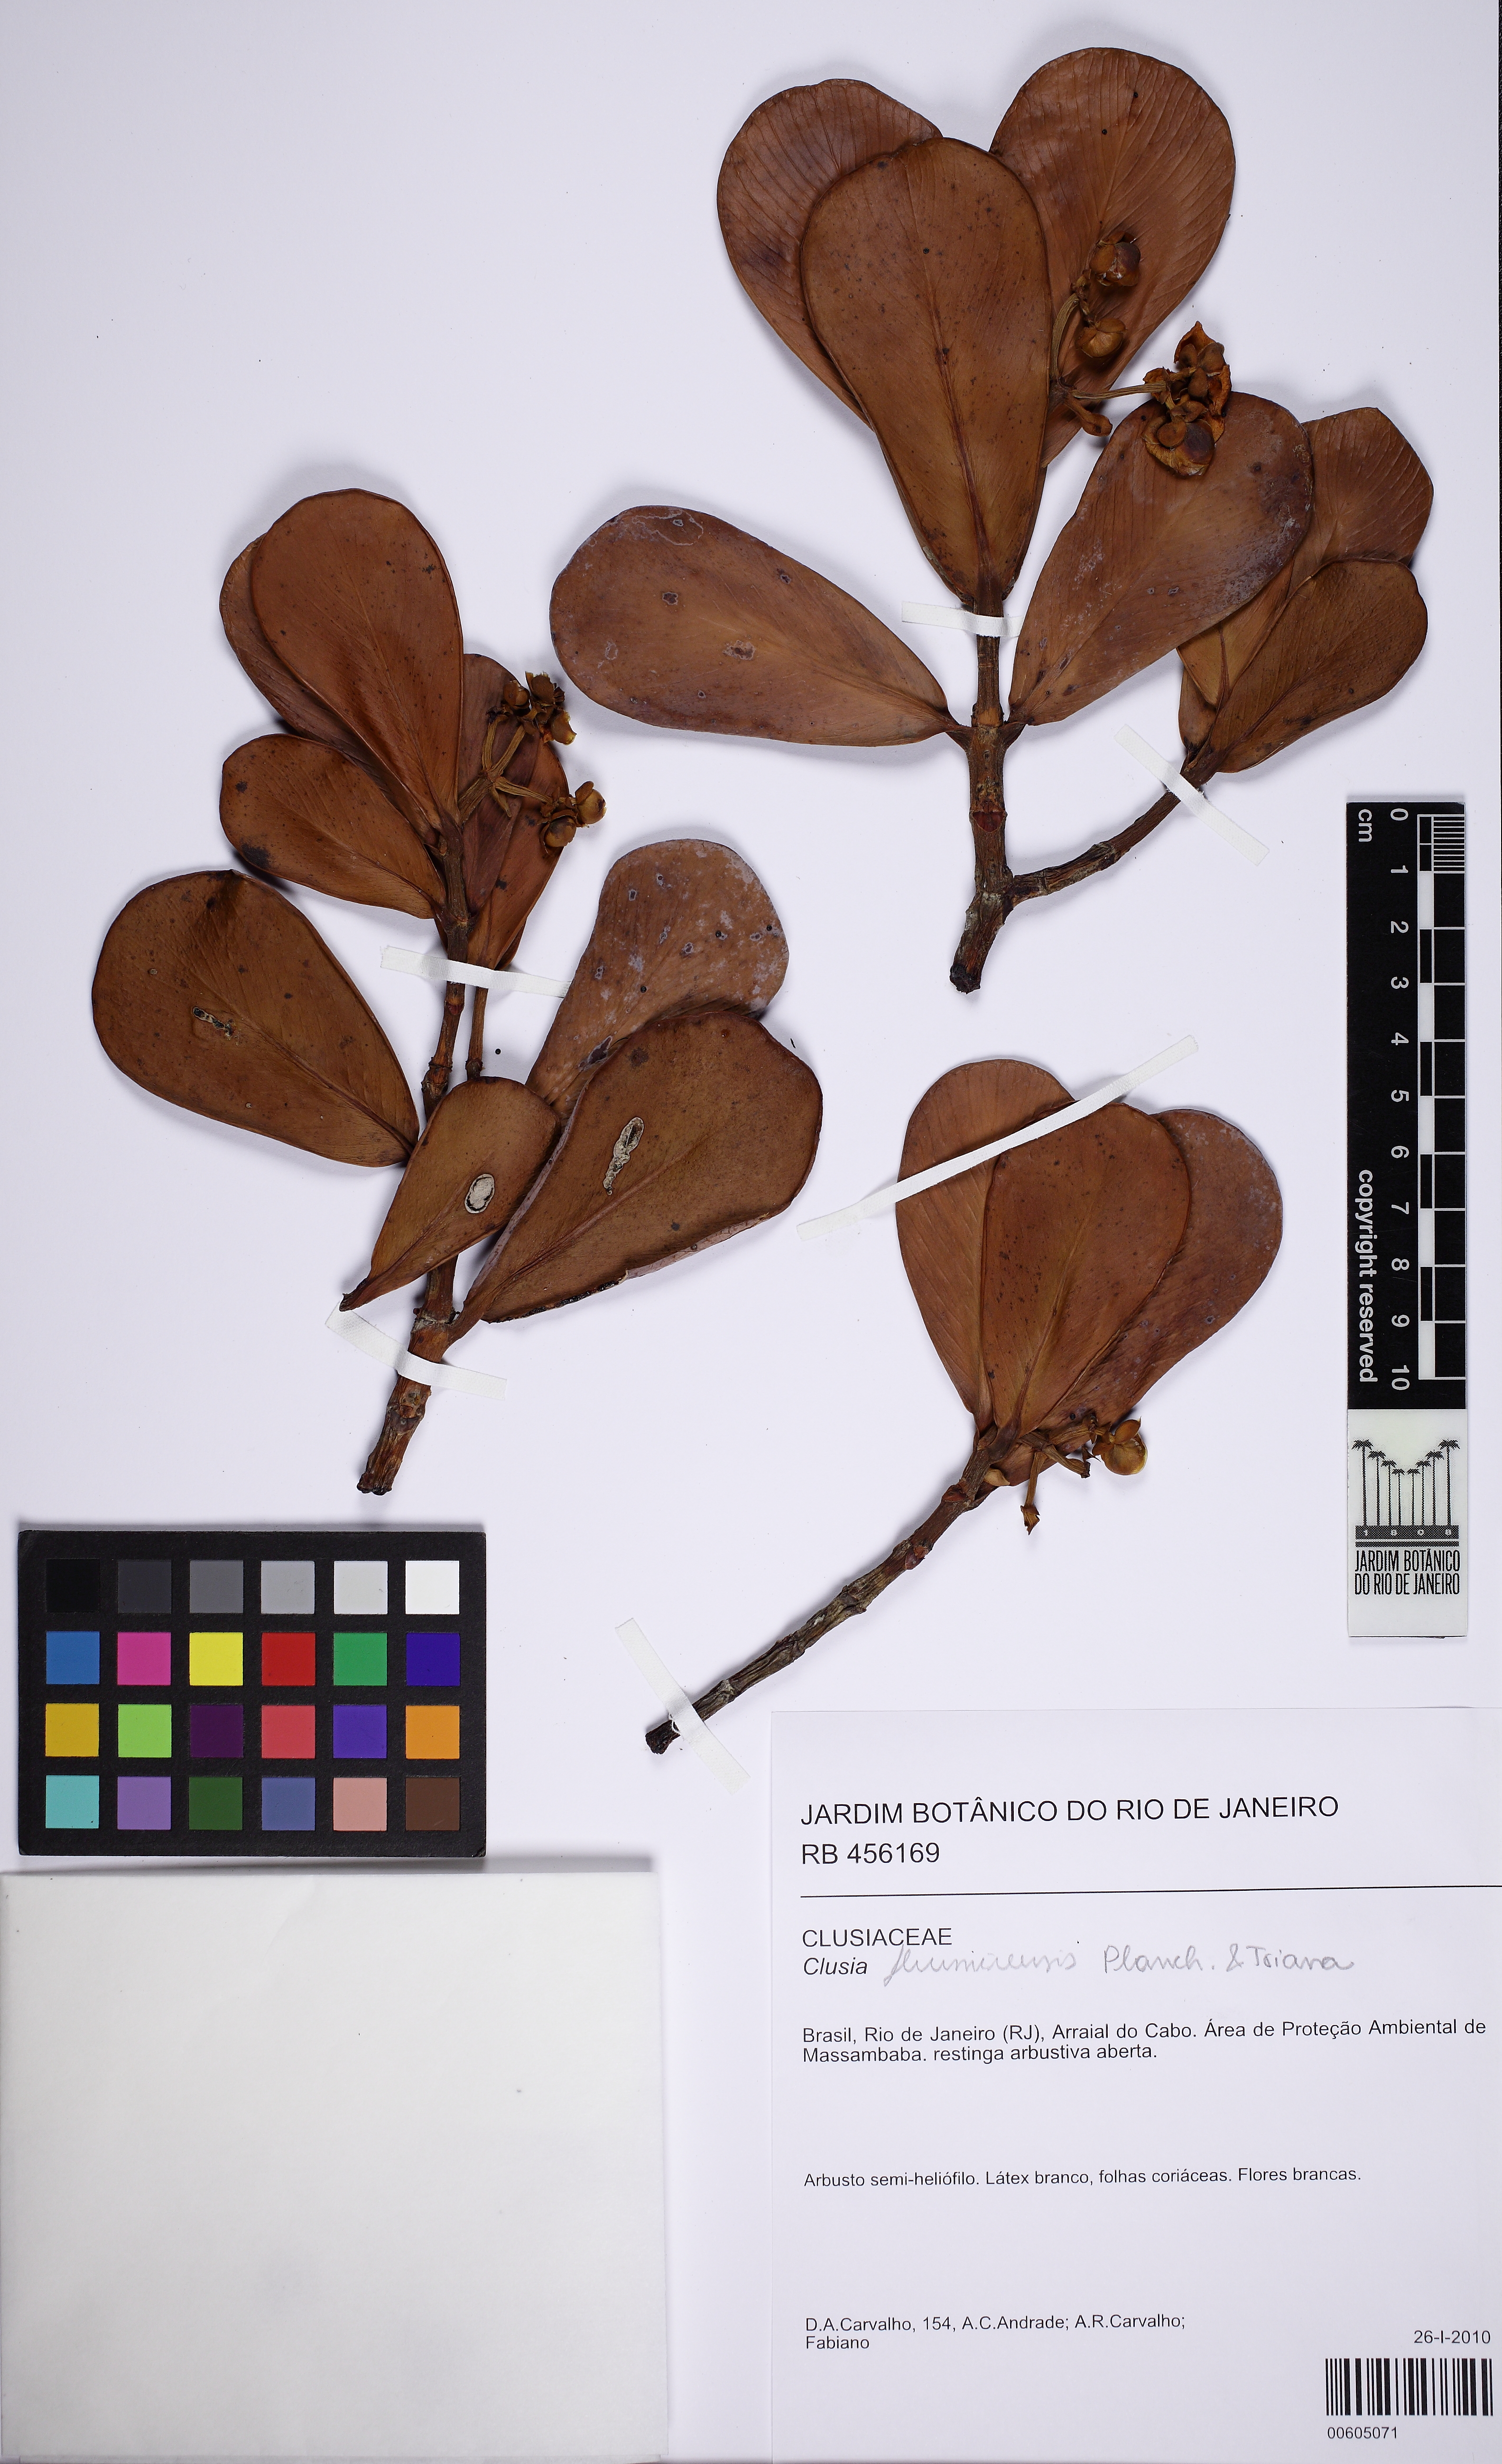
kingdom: Plantae
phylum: Tracheophyta
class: Magnoliopsida
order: Malpighiales
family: Clusiaceae
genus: Clusia
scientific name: Clusia fluminensis
